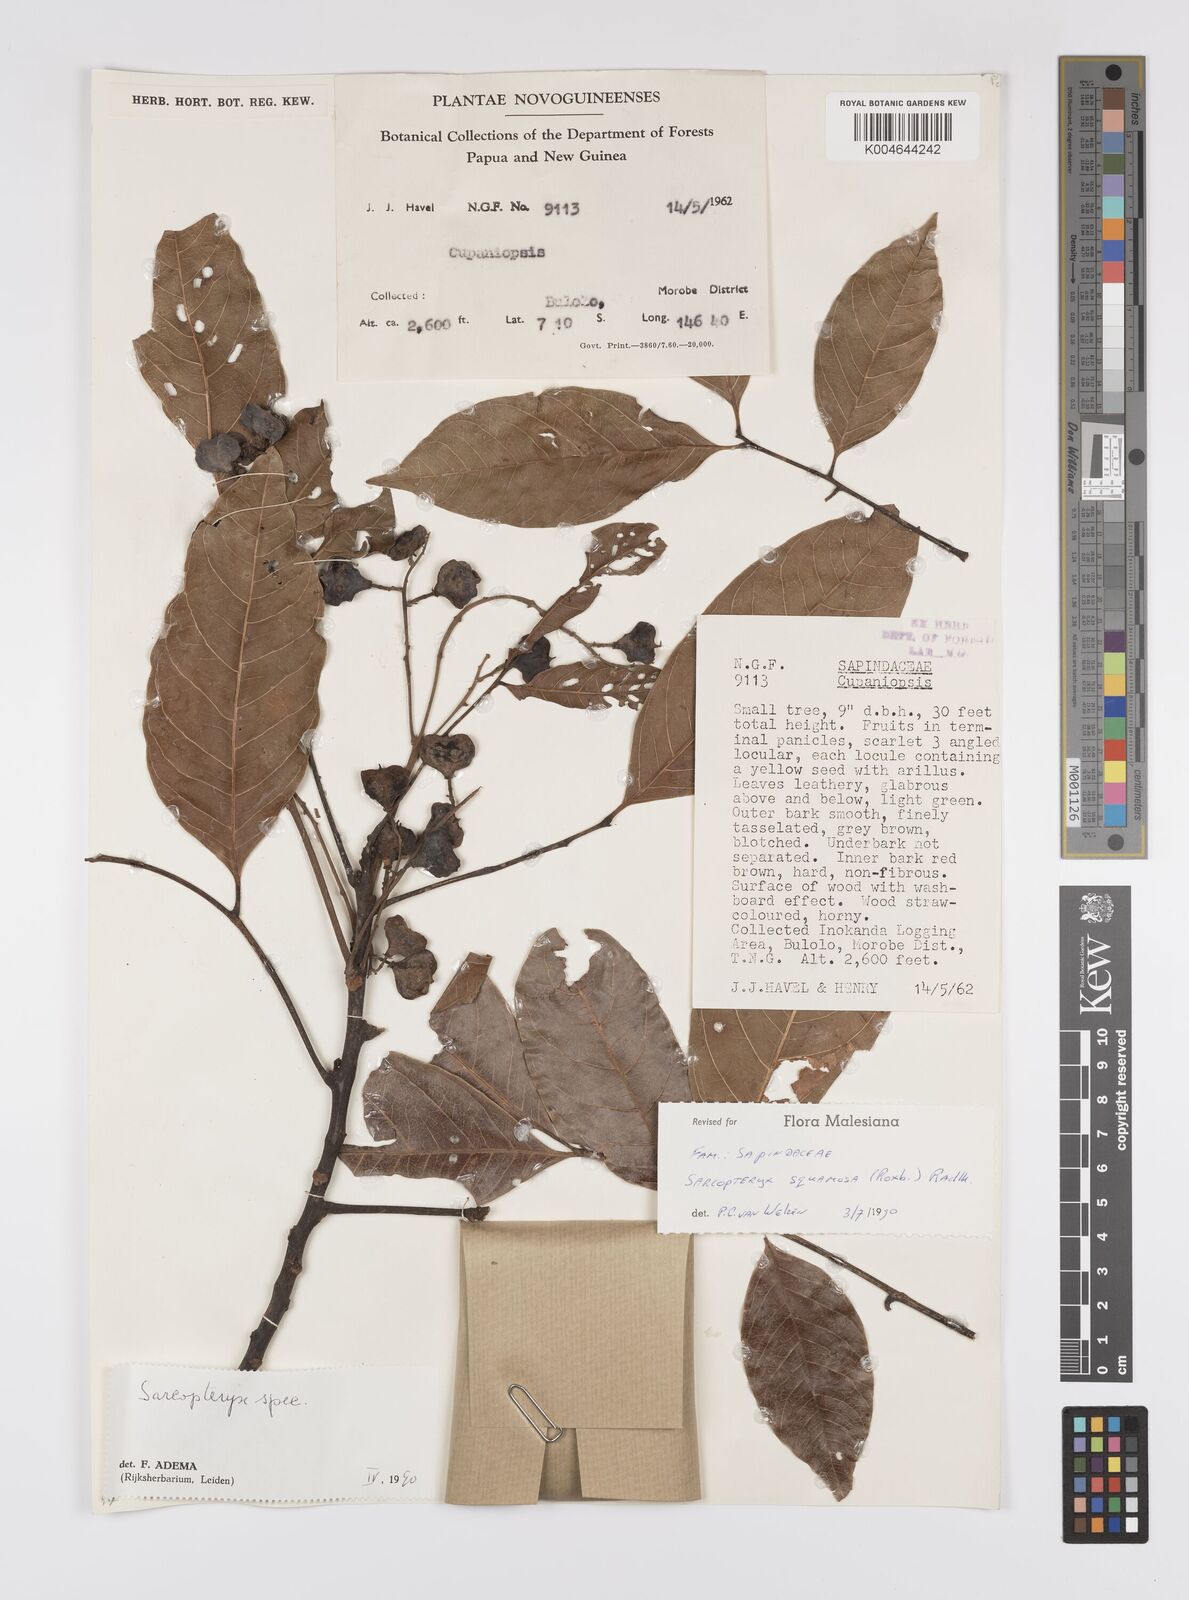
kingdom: Plantae
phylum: Tracheophyta
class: Magnoliopsida
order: Sapindales
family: Sapindaceae
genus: Sarcopteryx
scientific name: Sarcopteryx squamosa
